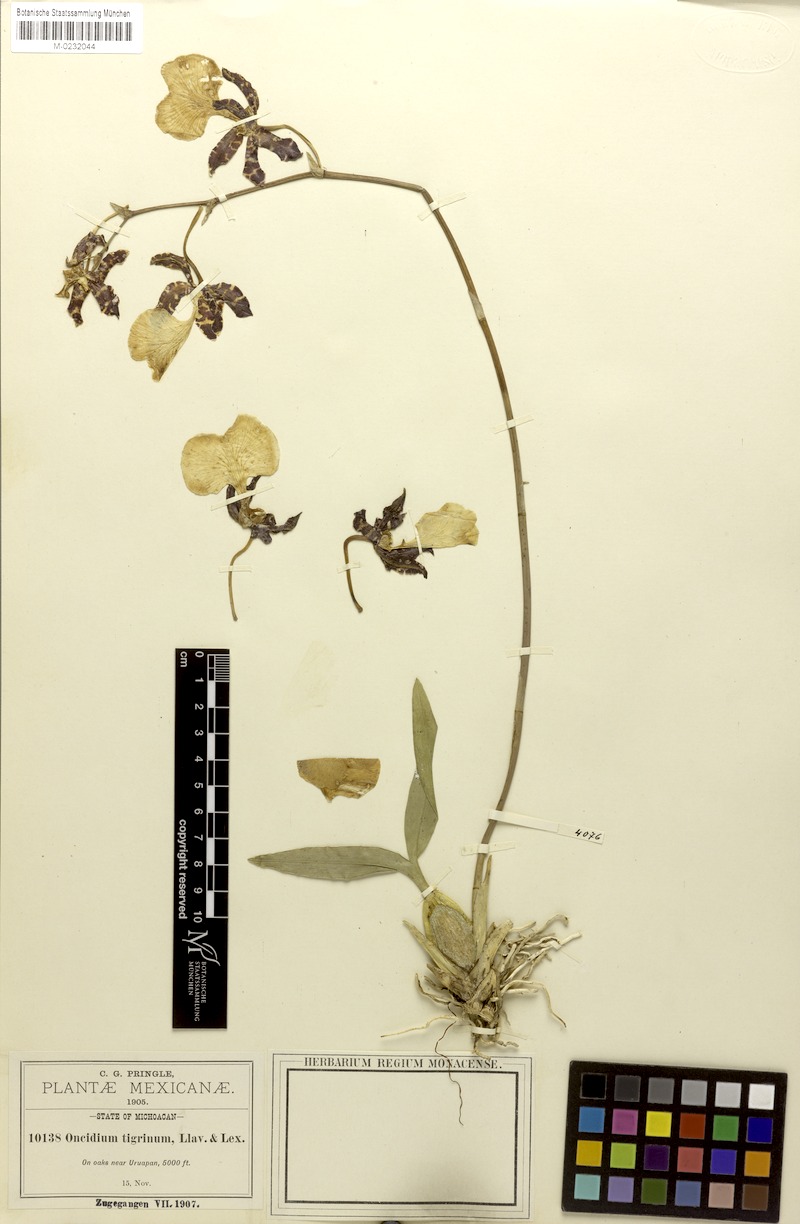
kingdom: Plantae
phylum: Tracheophyta
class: Liliopsida
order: Asparagales
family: Orchidaceae
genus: Oncidium
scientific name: Oncidium tigrinum
